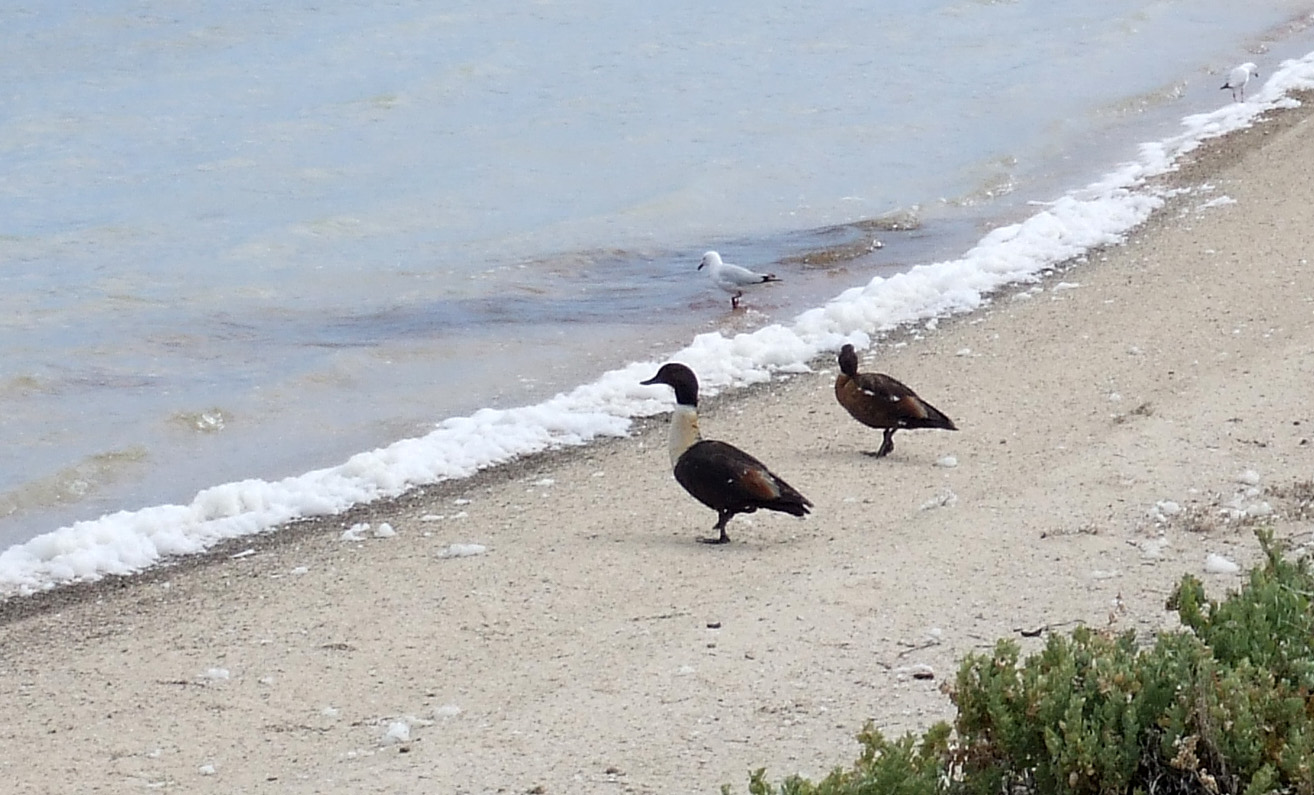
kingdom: Animalia
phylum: Chordata
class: Aves
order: Anseriformes
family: Anatidae
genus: Tadorna
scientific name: Tadorna
